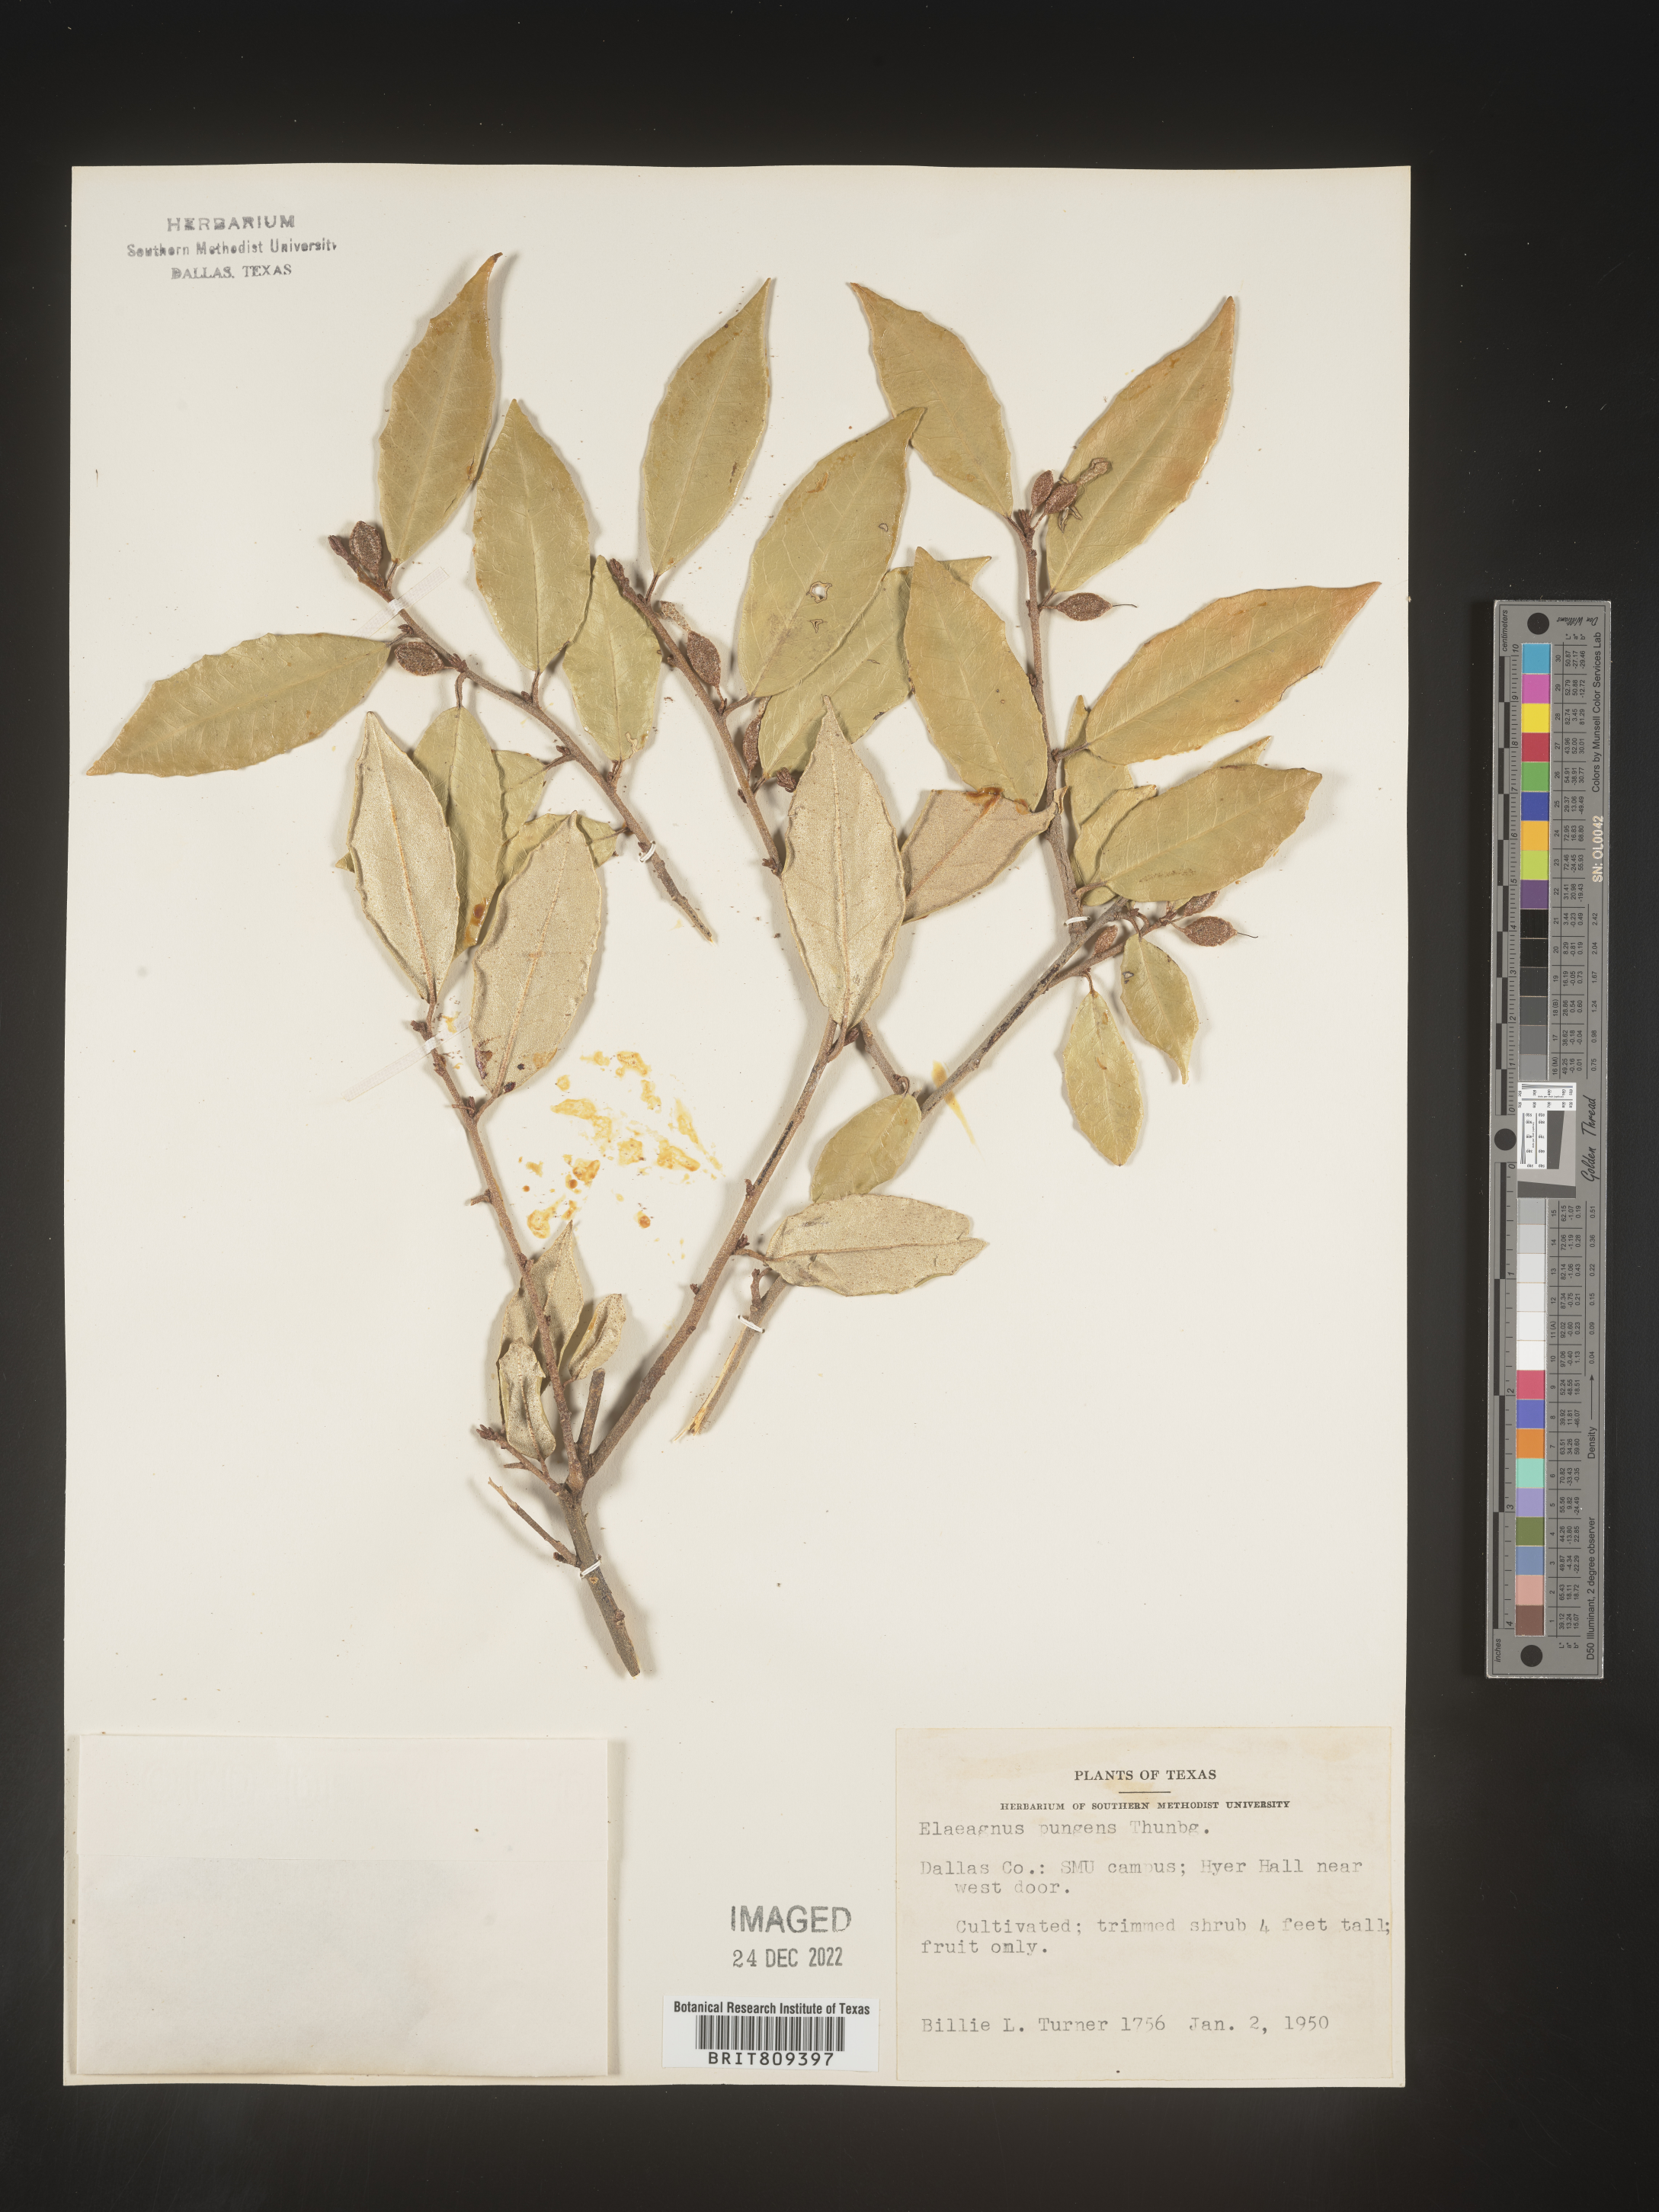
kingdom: Plantae
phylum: Tracheophyta
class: Magnoliopsida
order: Rosales
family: Elaeagnaceae
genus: Elaeagnus
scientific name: Elaeagnus
